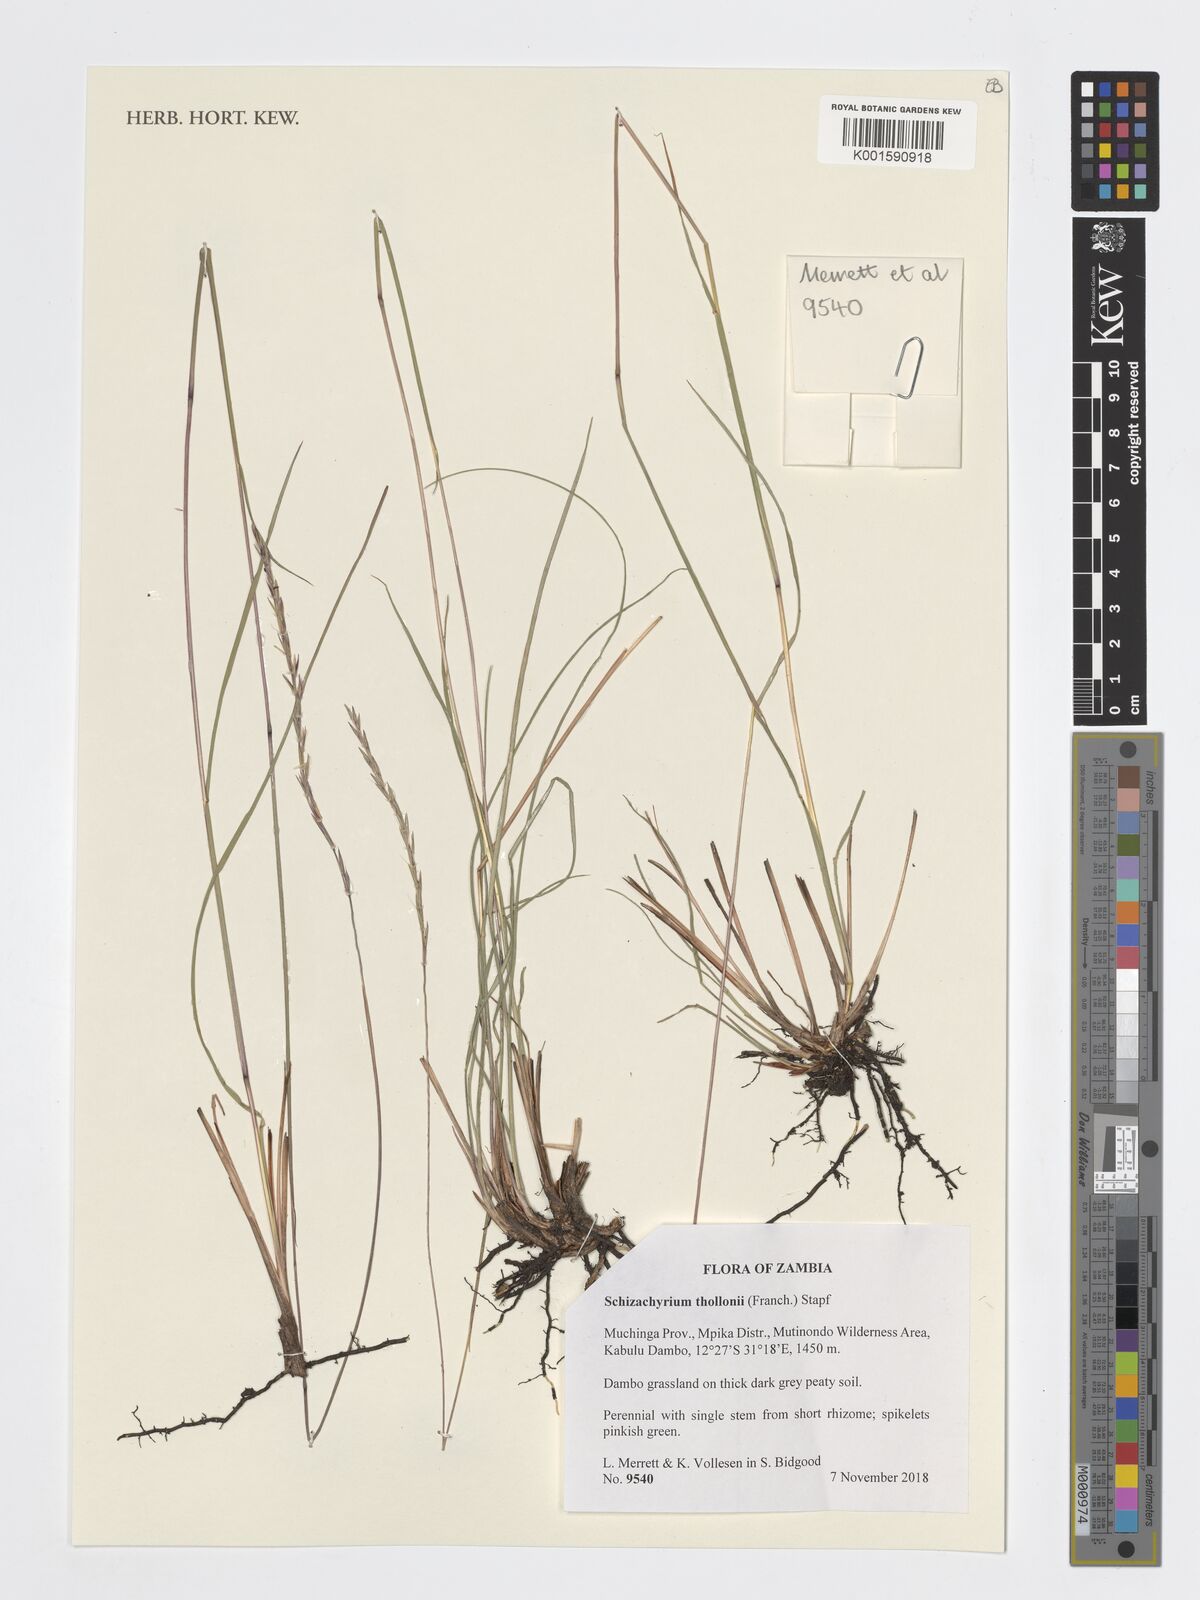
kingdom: Plantae
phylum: Tracheophyta
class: Liliopsida
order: Poales
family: Poaceae
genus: Schizachyrium
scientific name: Schizachyrium thollonii
